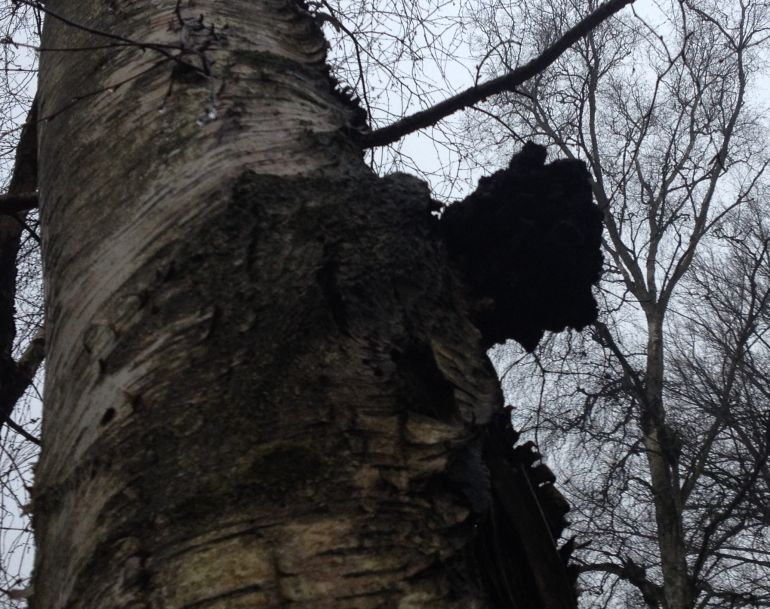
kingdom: Fungi
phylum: Basidiomycota
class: Agaricomycetes
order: Hymenochaetales
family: Hymenochaetaceae
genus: Inonotus
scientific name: Inonotus obliquus
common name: birke-spejlporesvamp
